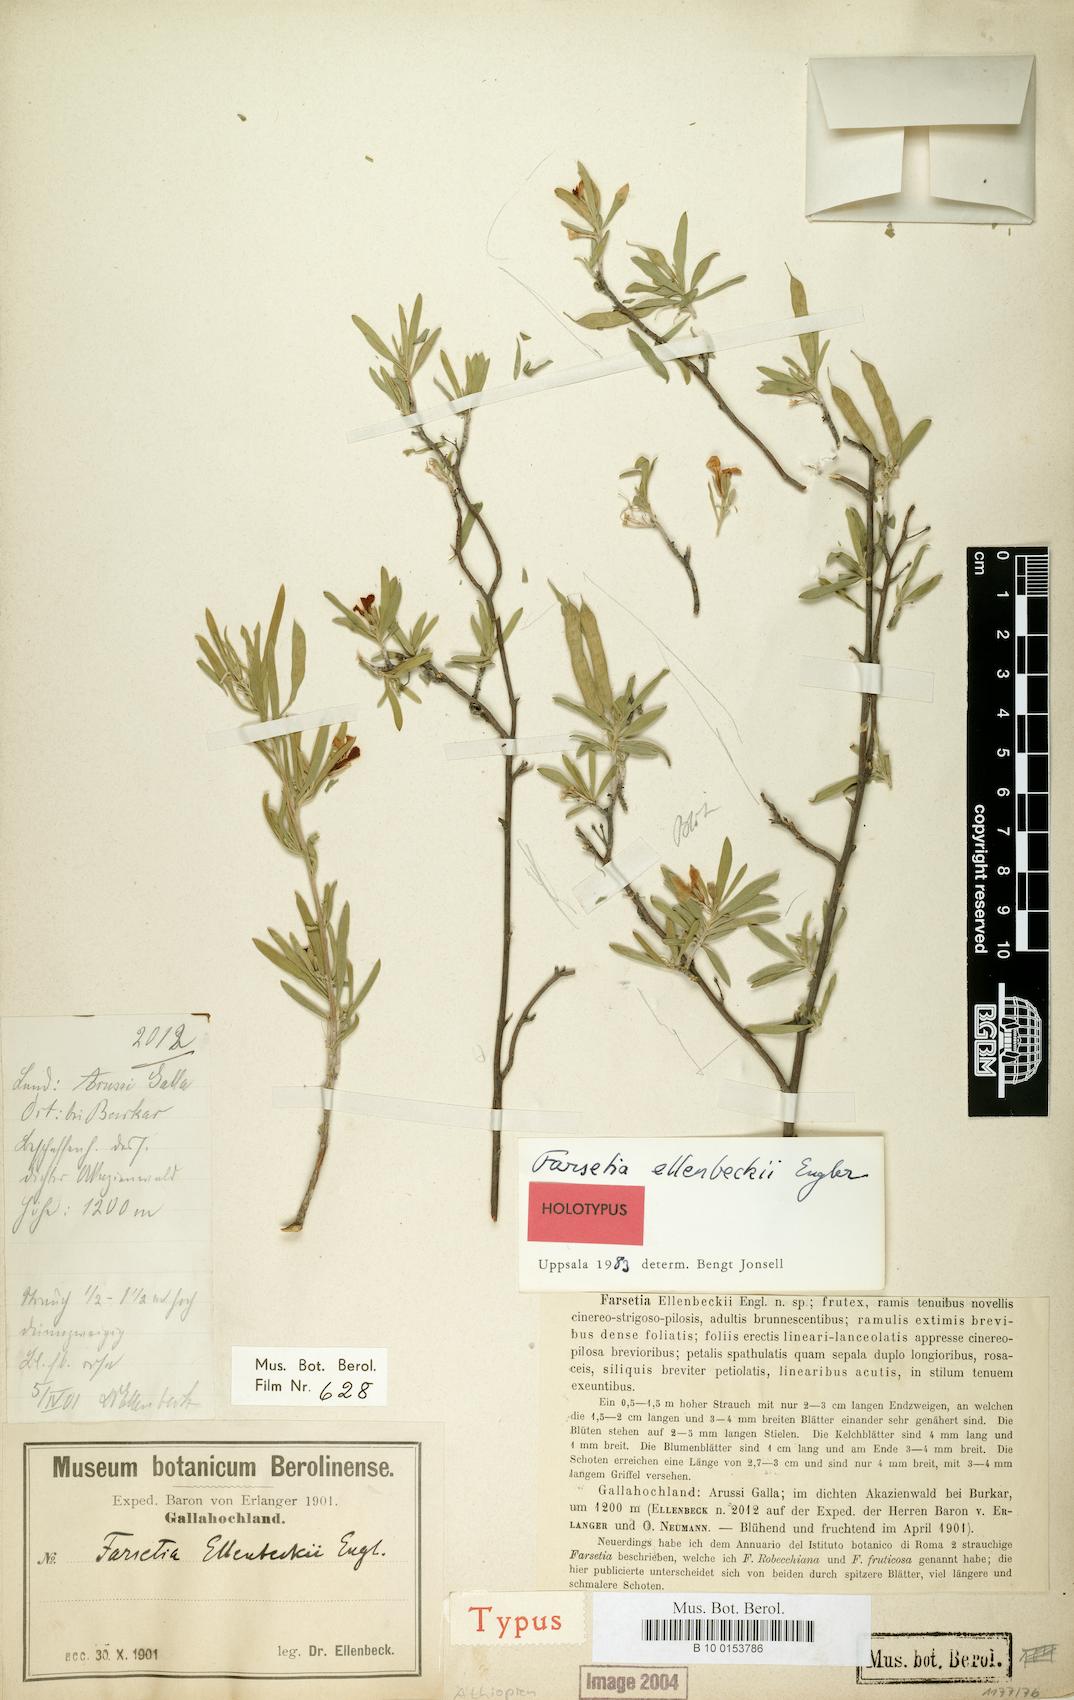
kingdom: Plantae
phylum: Tracheophyta
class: Magnoliopsida
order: Brassicales
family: Brassicaceae
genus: Farsetia
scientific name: Farsetia ellenbeckii
